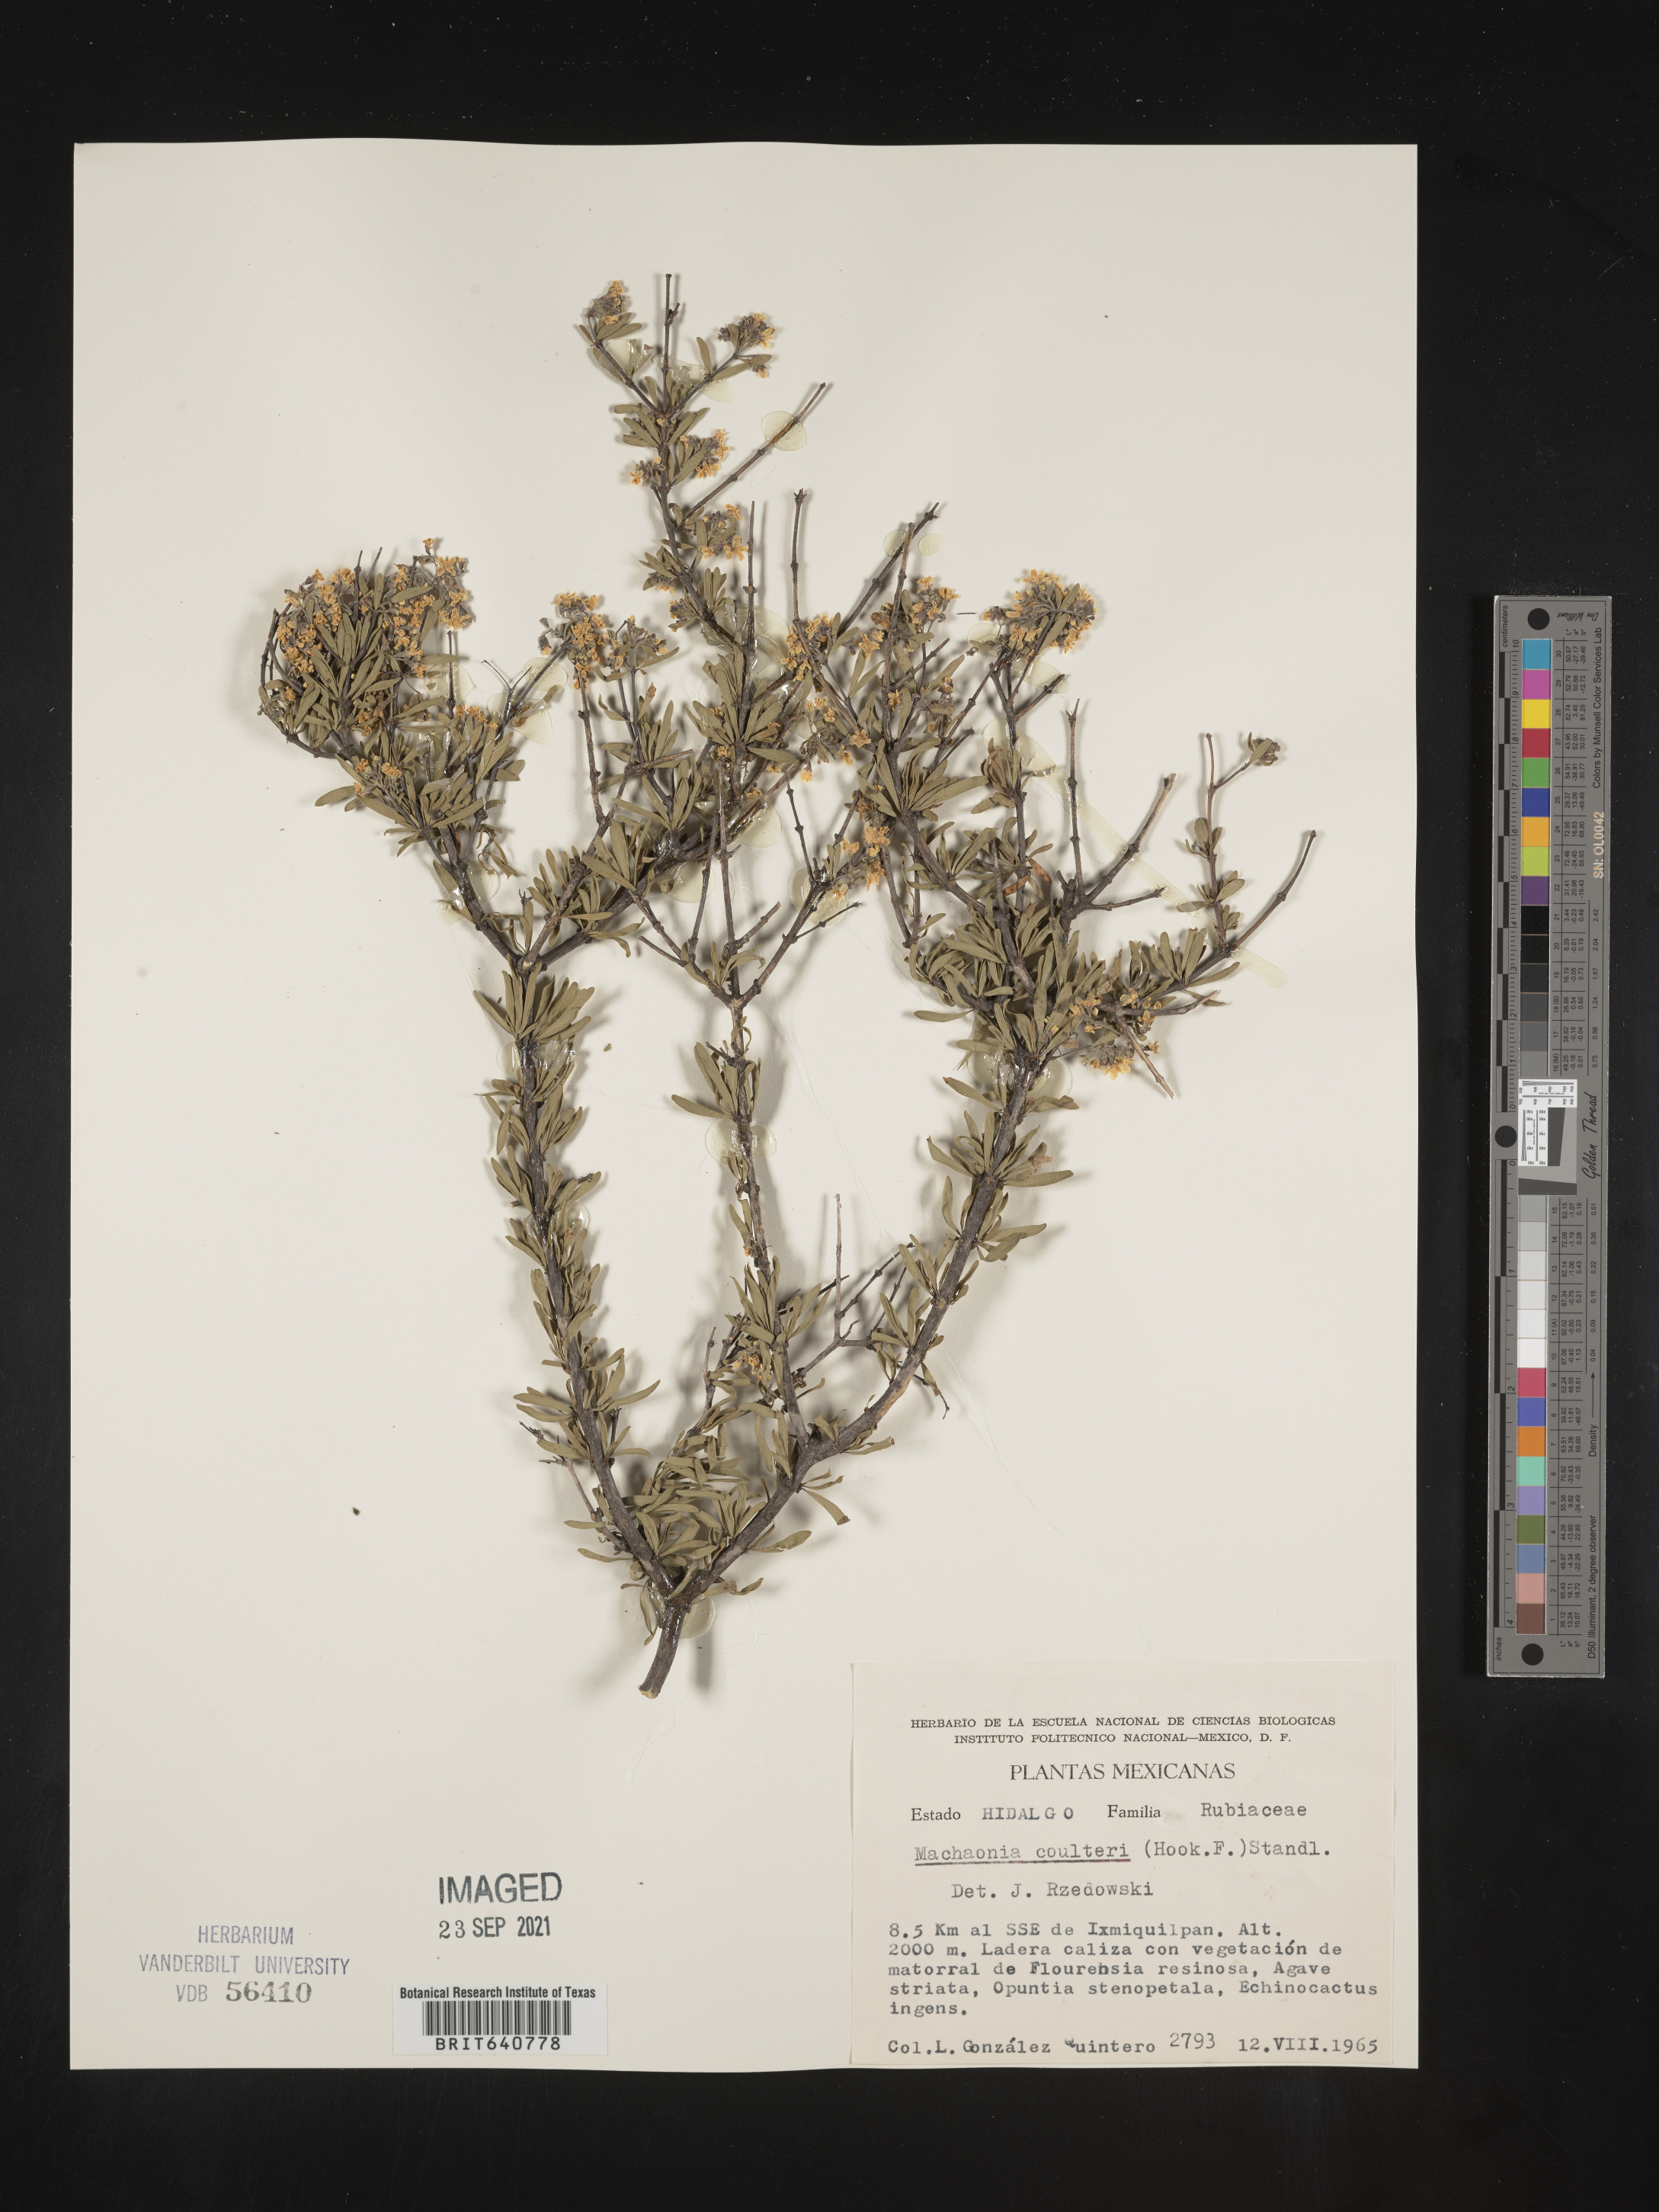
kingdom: Plantae
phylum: Tracheophyta
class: Magnoliopsida
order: Gentianales
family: Rubiaceae
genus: Machaonia
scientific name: Machaonia
